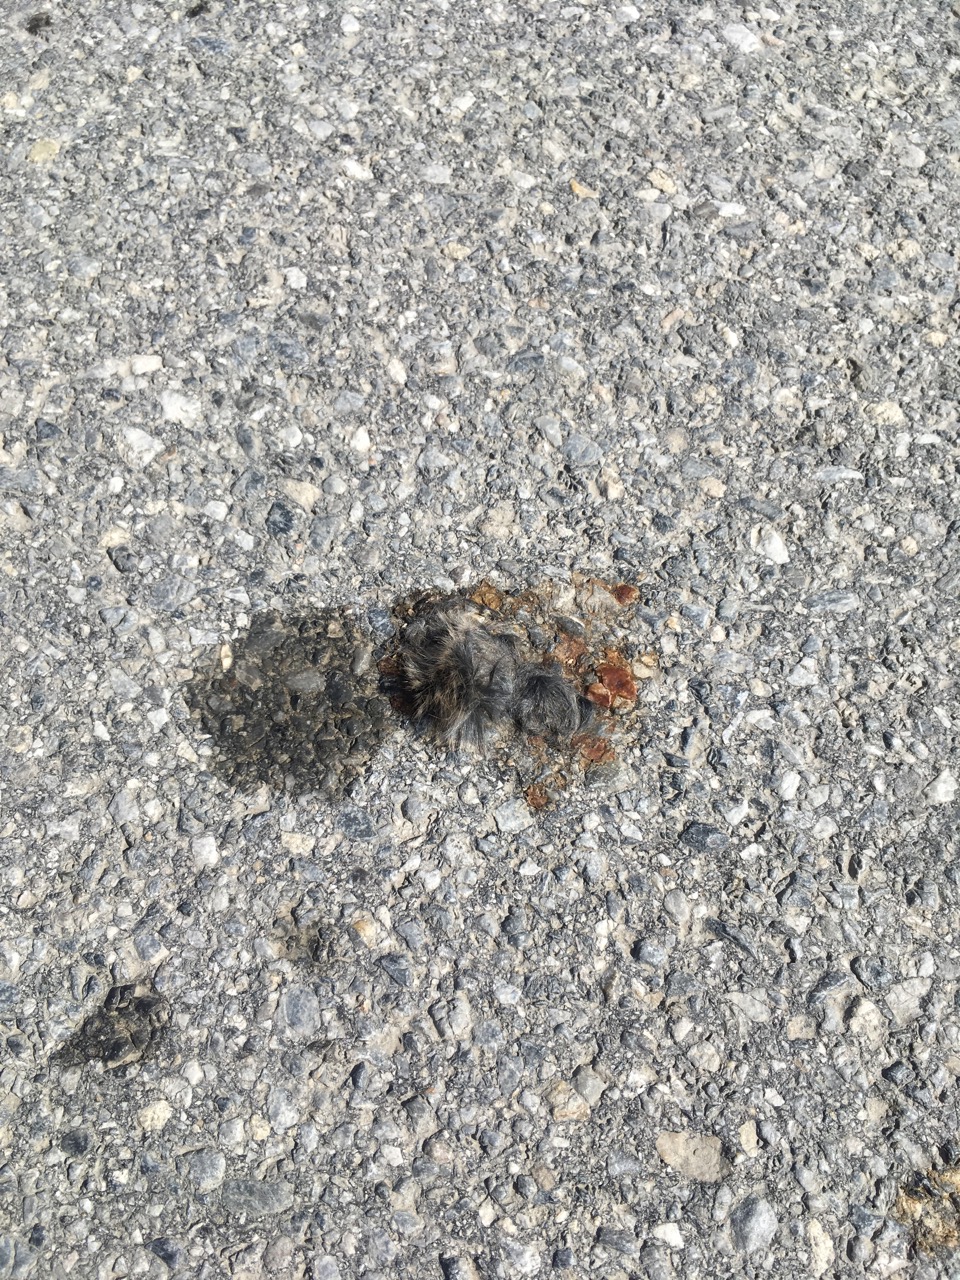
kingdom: Animalia
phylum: Chordata
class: Mammalia
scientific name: Mammalia
